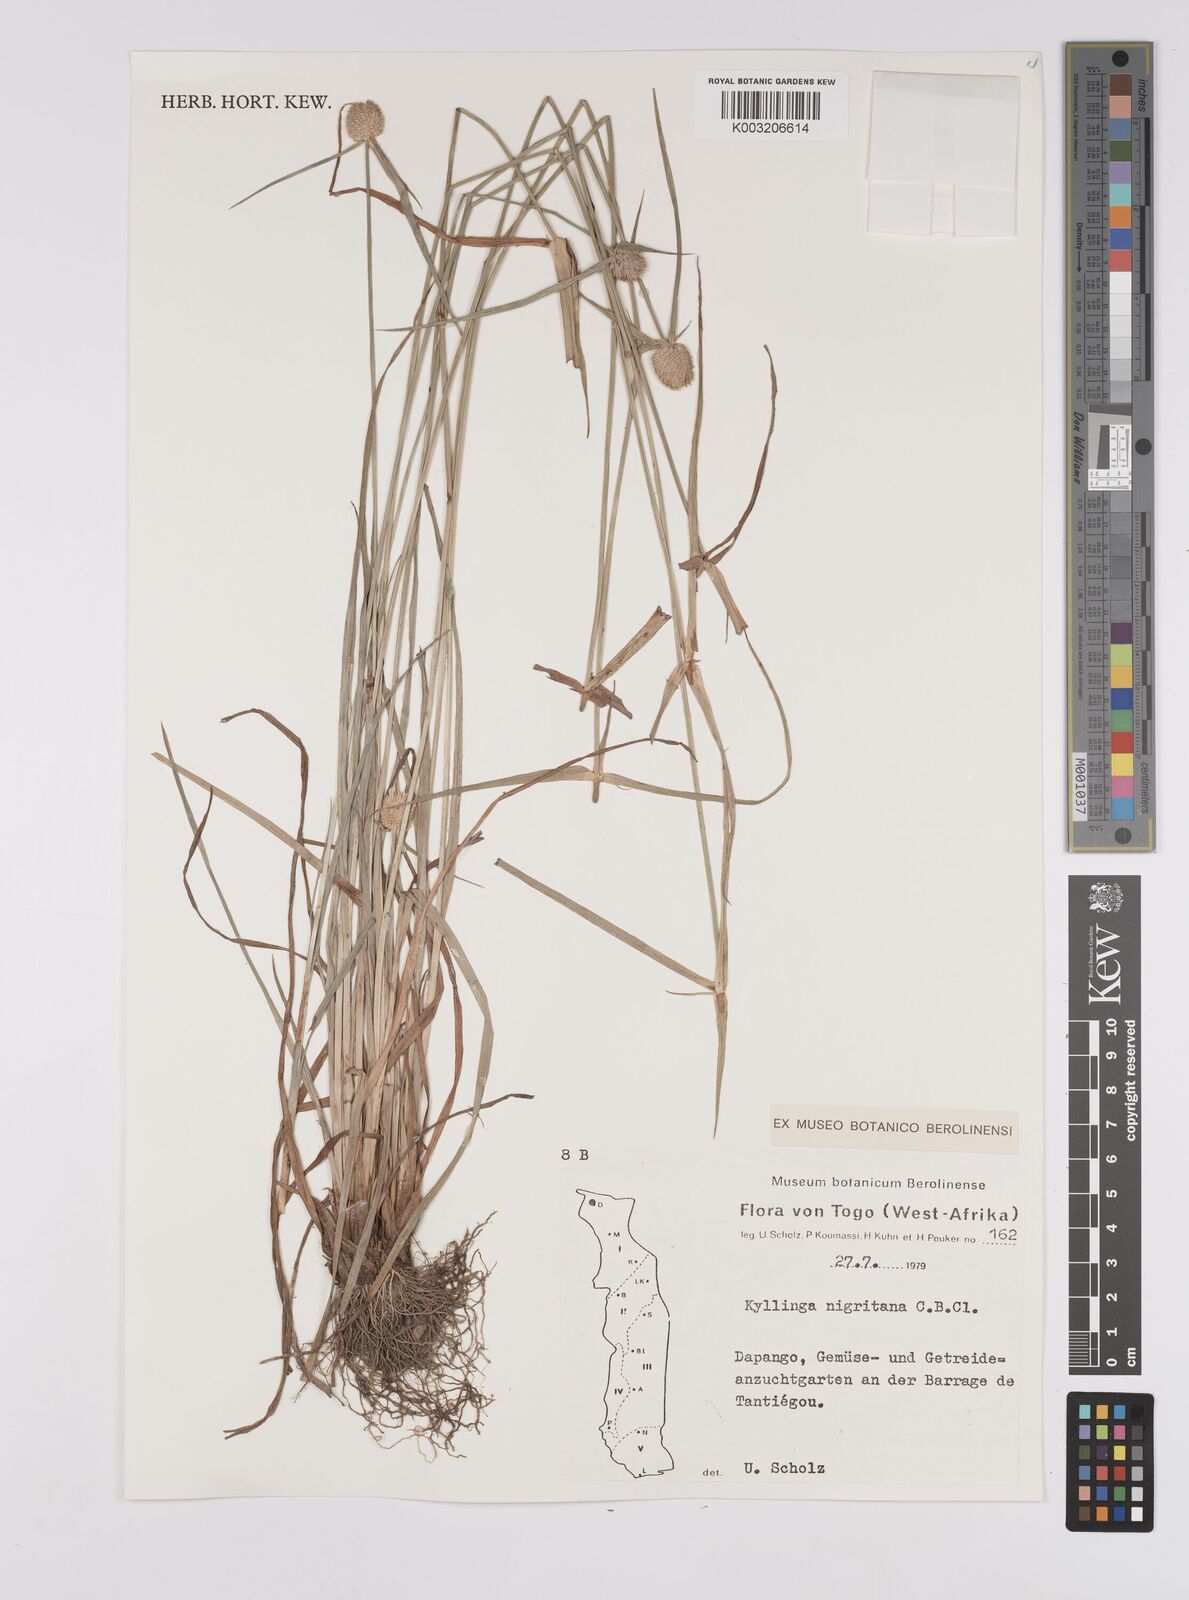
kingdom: Plantae
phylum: Tracheophyta
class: Liliopsida
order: Poales
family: Cyperaceae
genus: Cyperus
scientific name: Cyperus alatus
